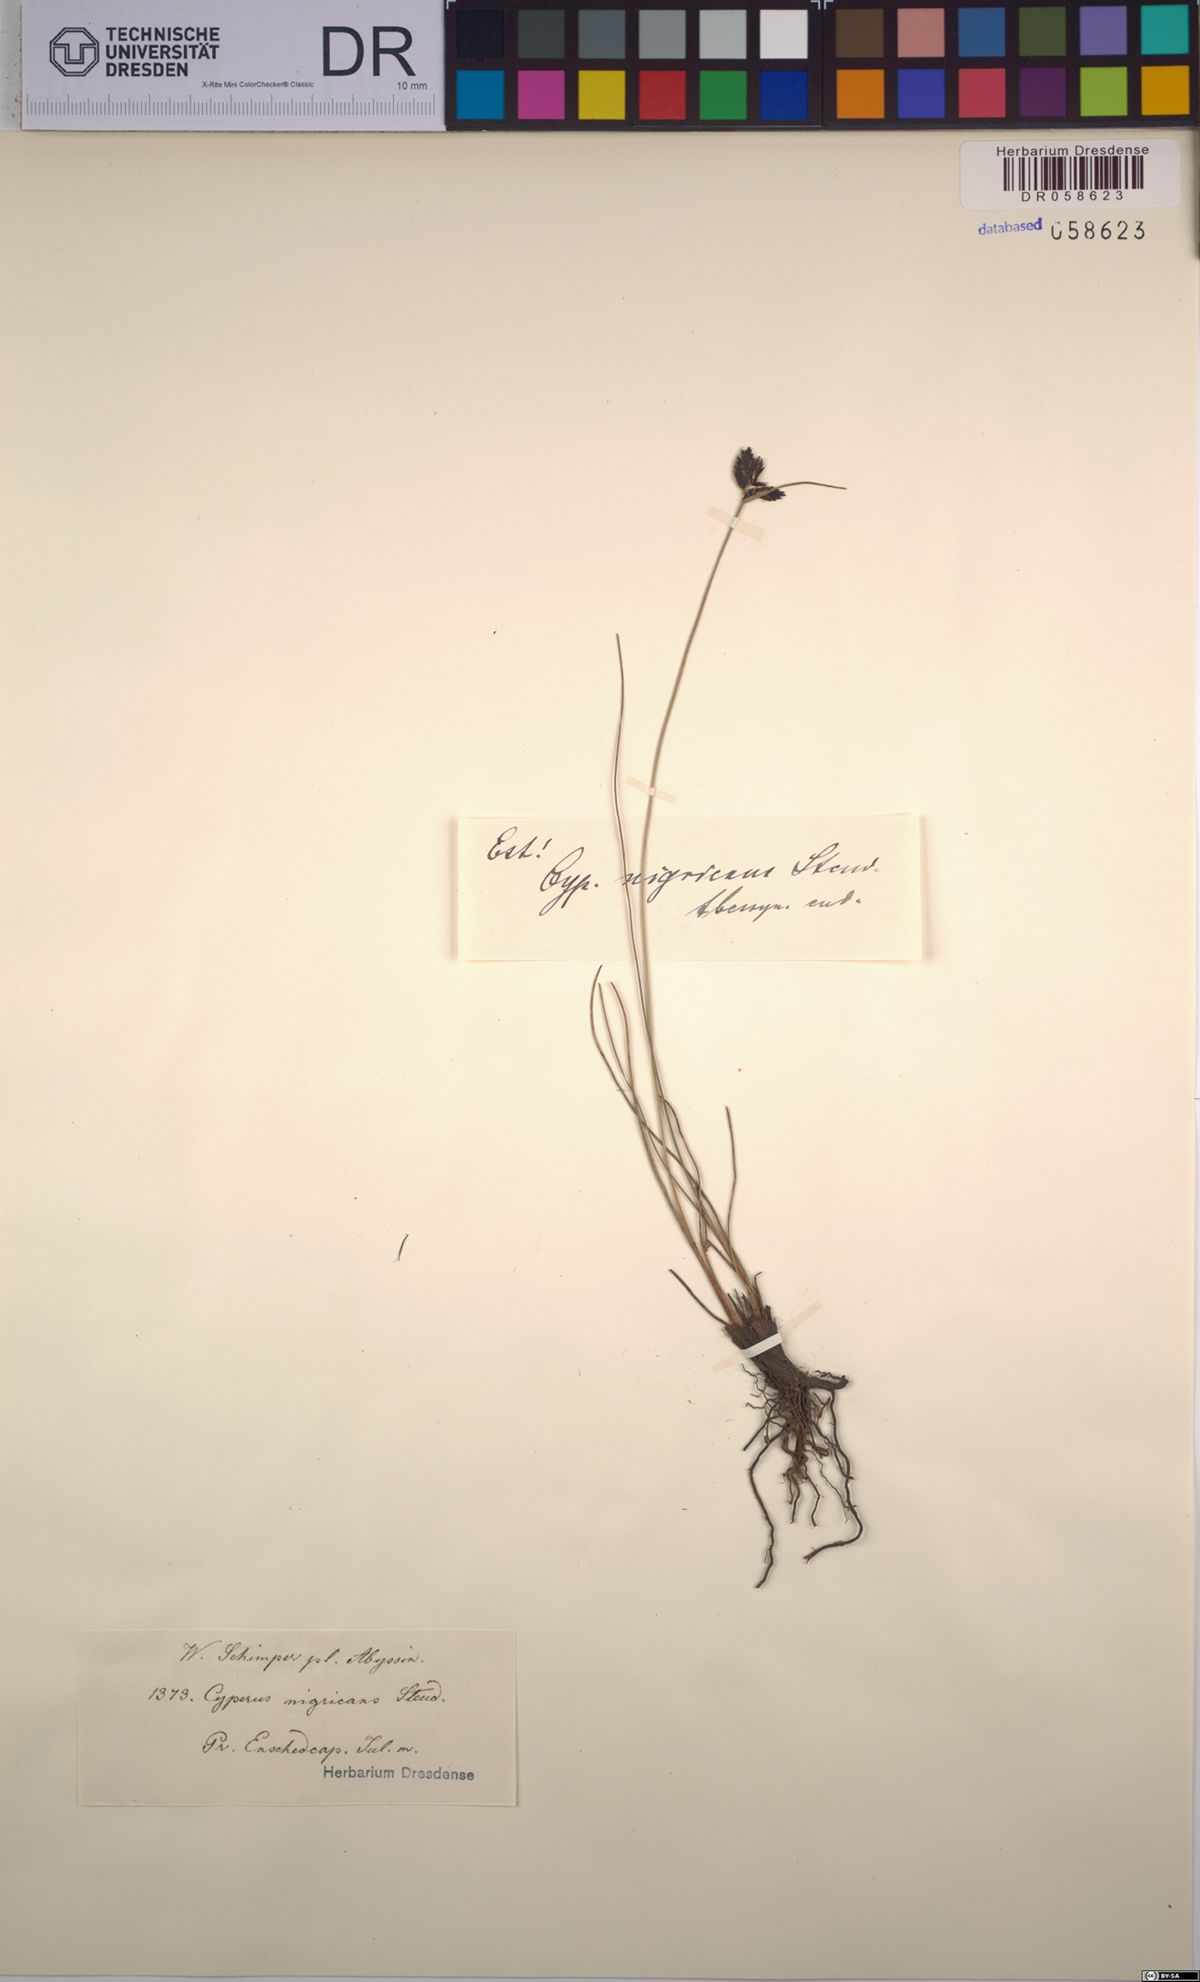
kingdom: Plantae
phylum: Tracheophyta
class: Liliopsida
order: Poales
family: Cyperaceae
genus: Cyperus
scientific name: Cyperus nigricans
